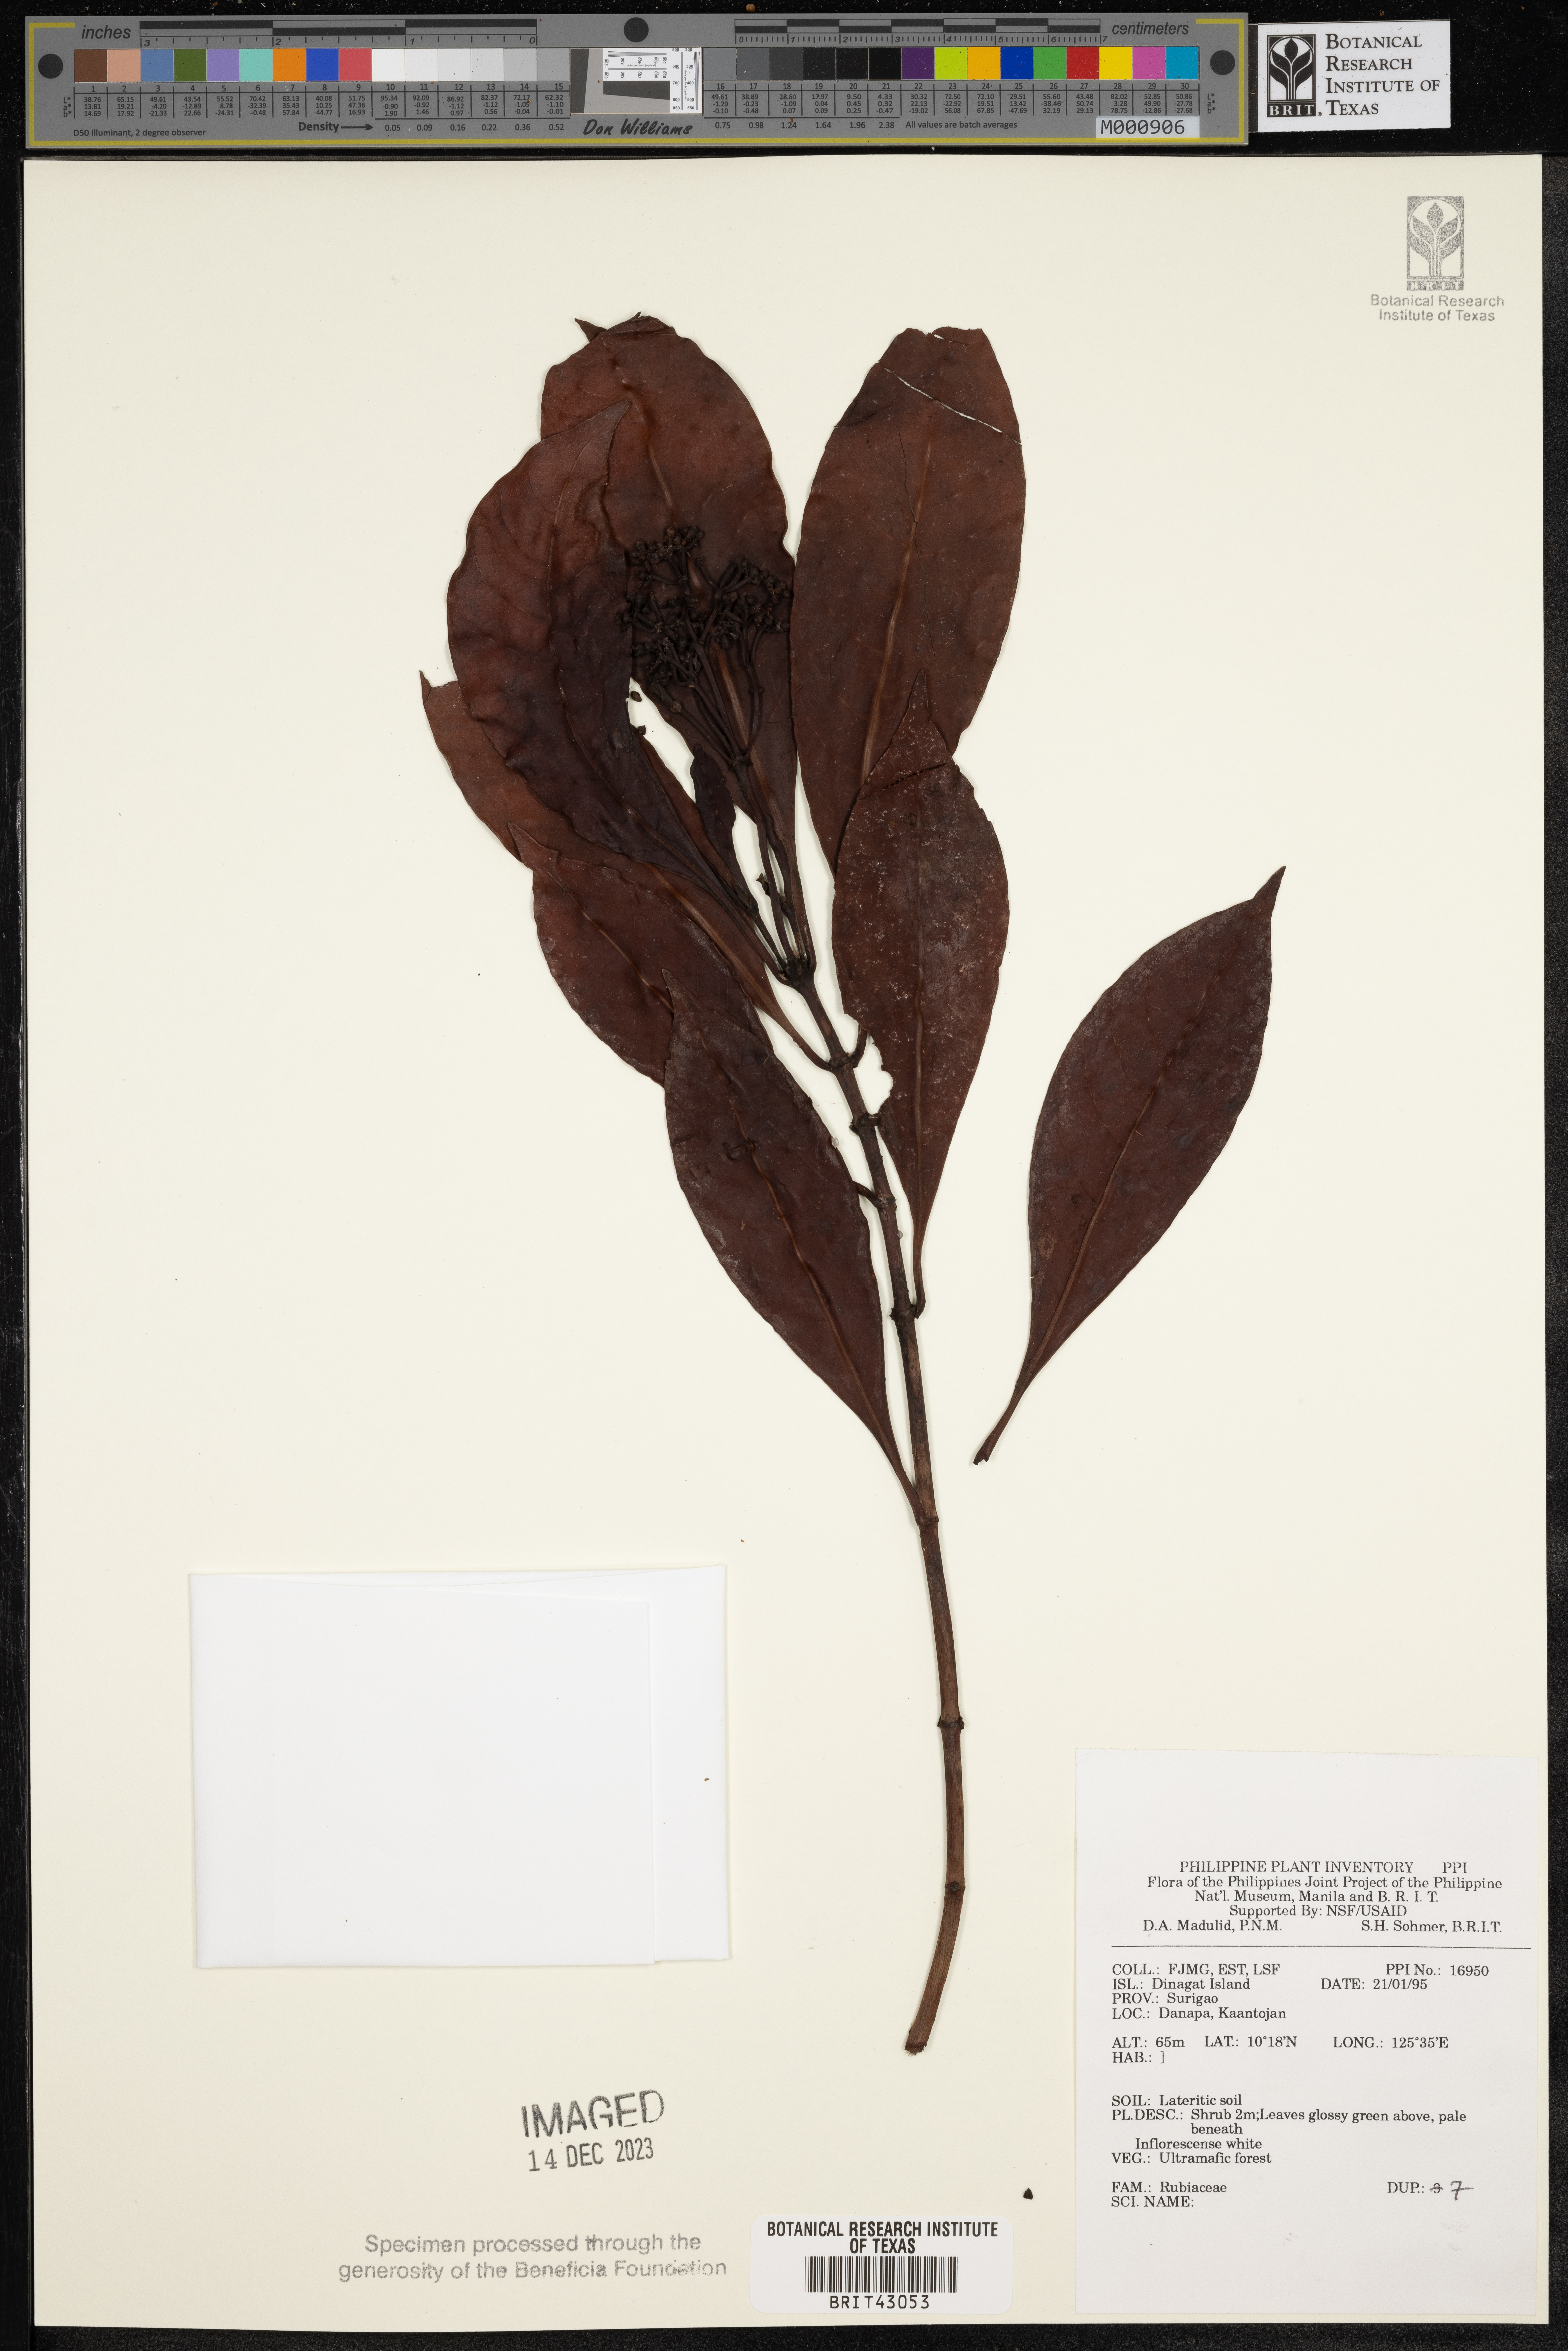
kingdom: Plantae
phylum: Tracheophyta
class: Magnoliopsida
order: Gentianales
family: Rubiaceae
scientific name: Rubiaceae
